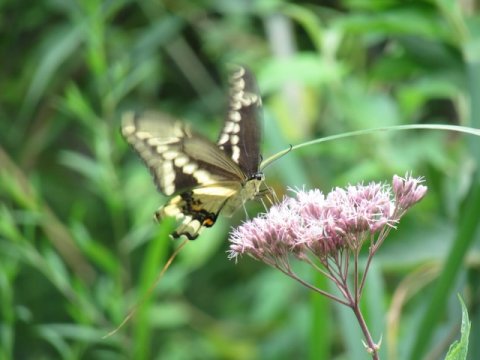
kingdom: Animalia
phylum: Arthropoda
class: Insecta
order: Lepidoptera
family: Papilionidae
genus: Papilio
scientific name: Papilio cresphontes
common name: Eastern Giant Swallowtail
